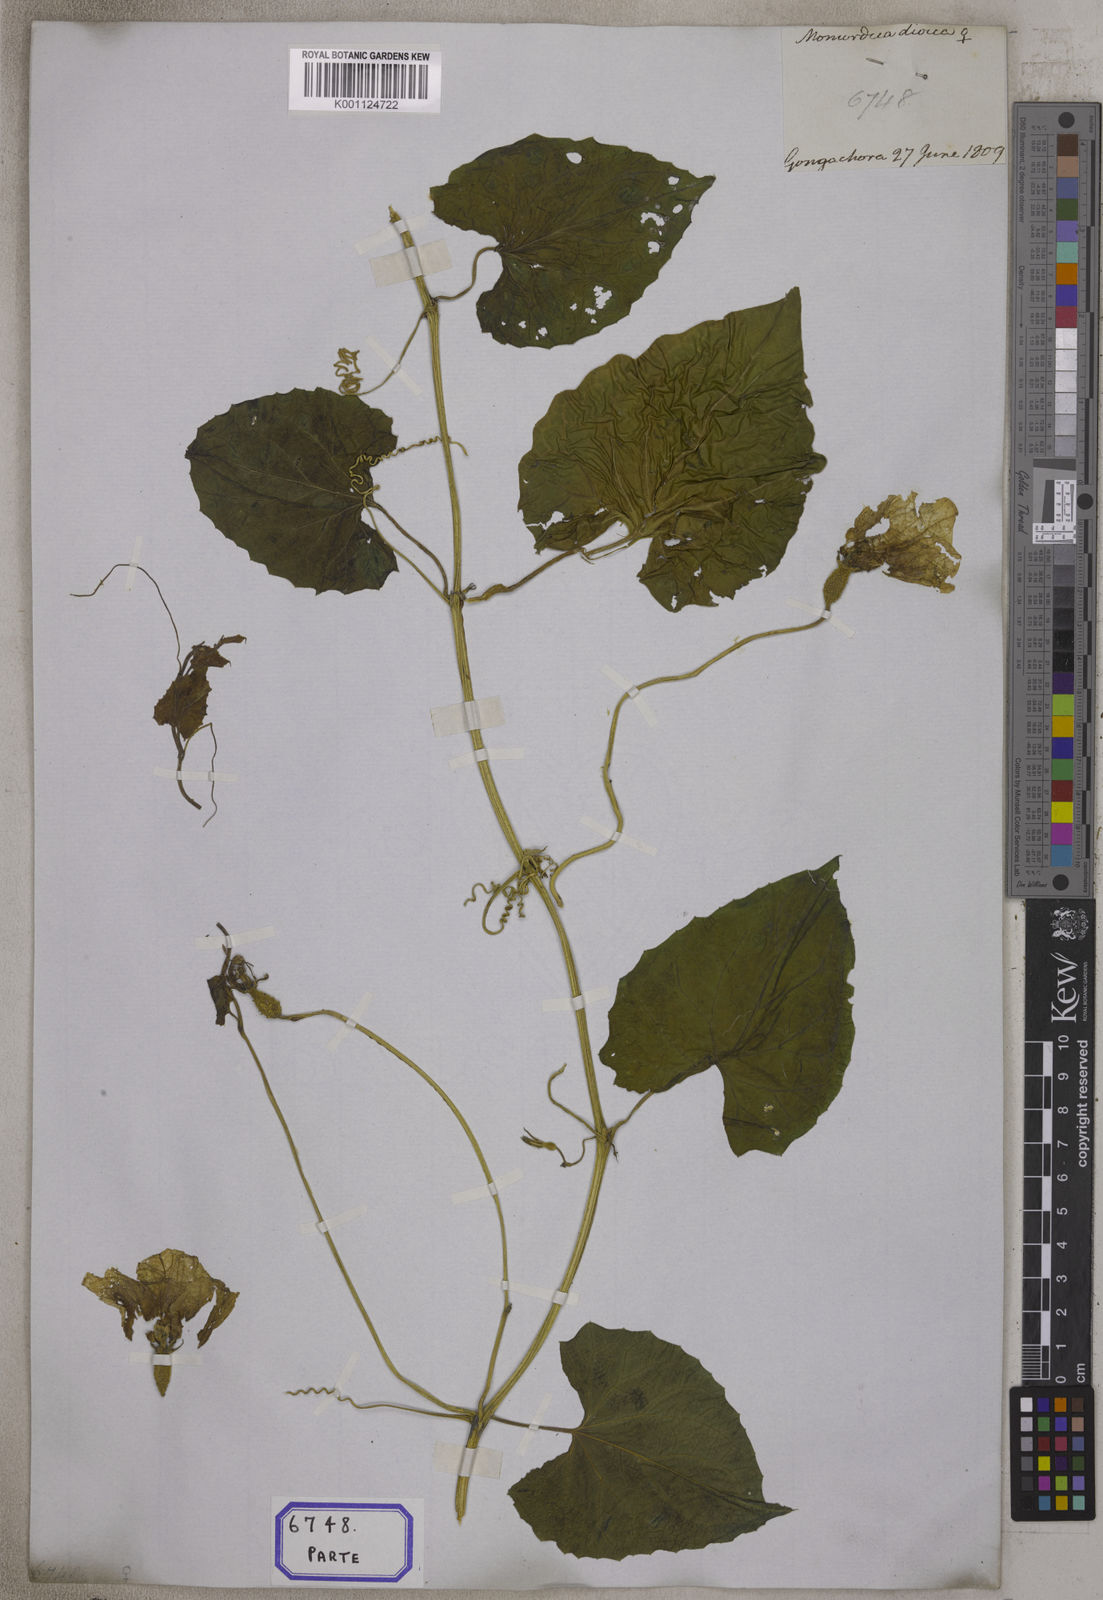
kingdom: Plantae
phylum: Tracheophyta
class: Magnoliopsida
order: Cucurbitales
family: Cucurbitaceae
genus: Momordica
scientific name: Momordica
